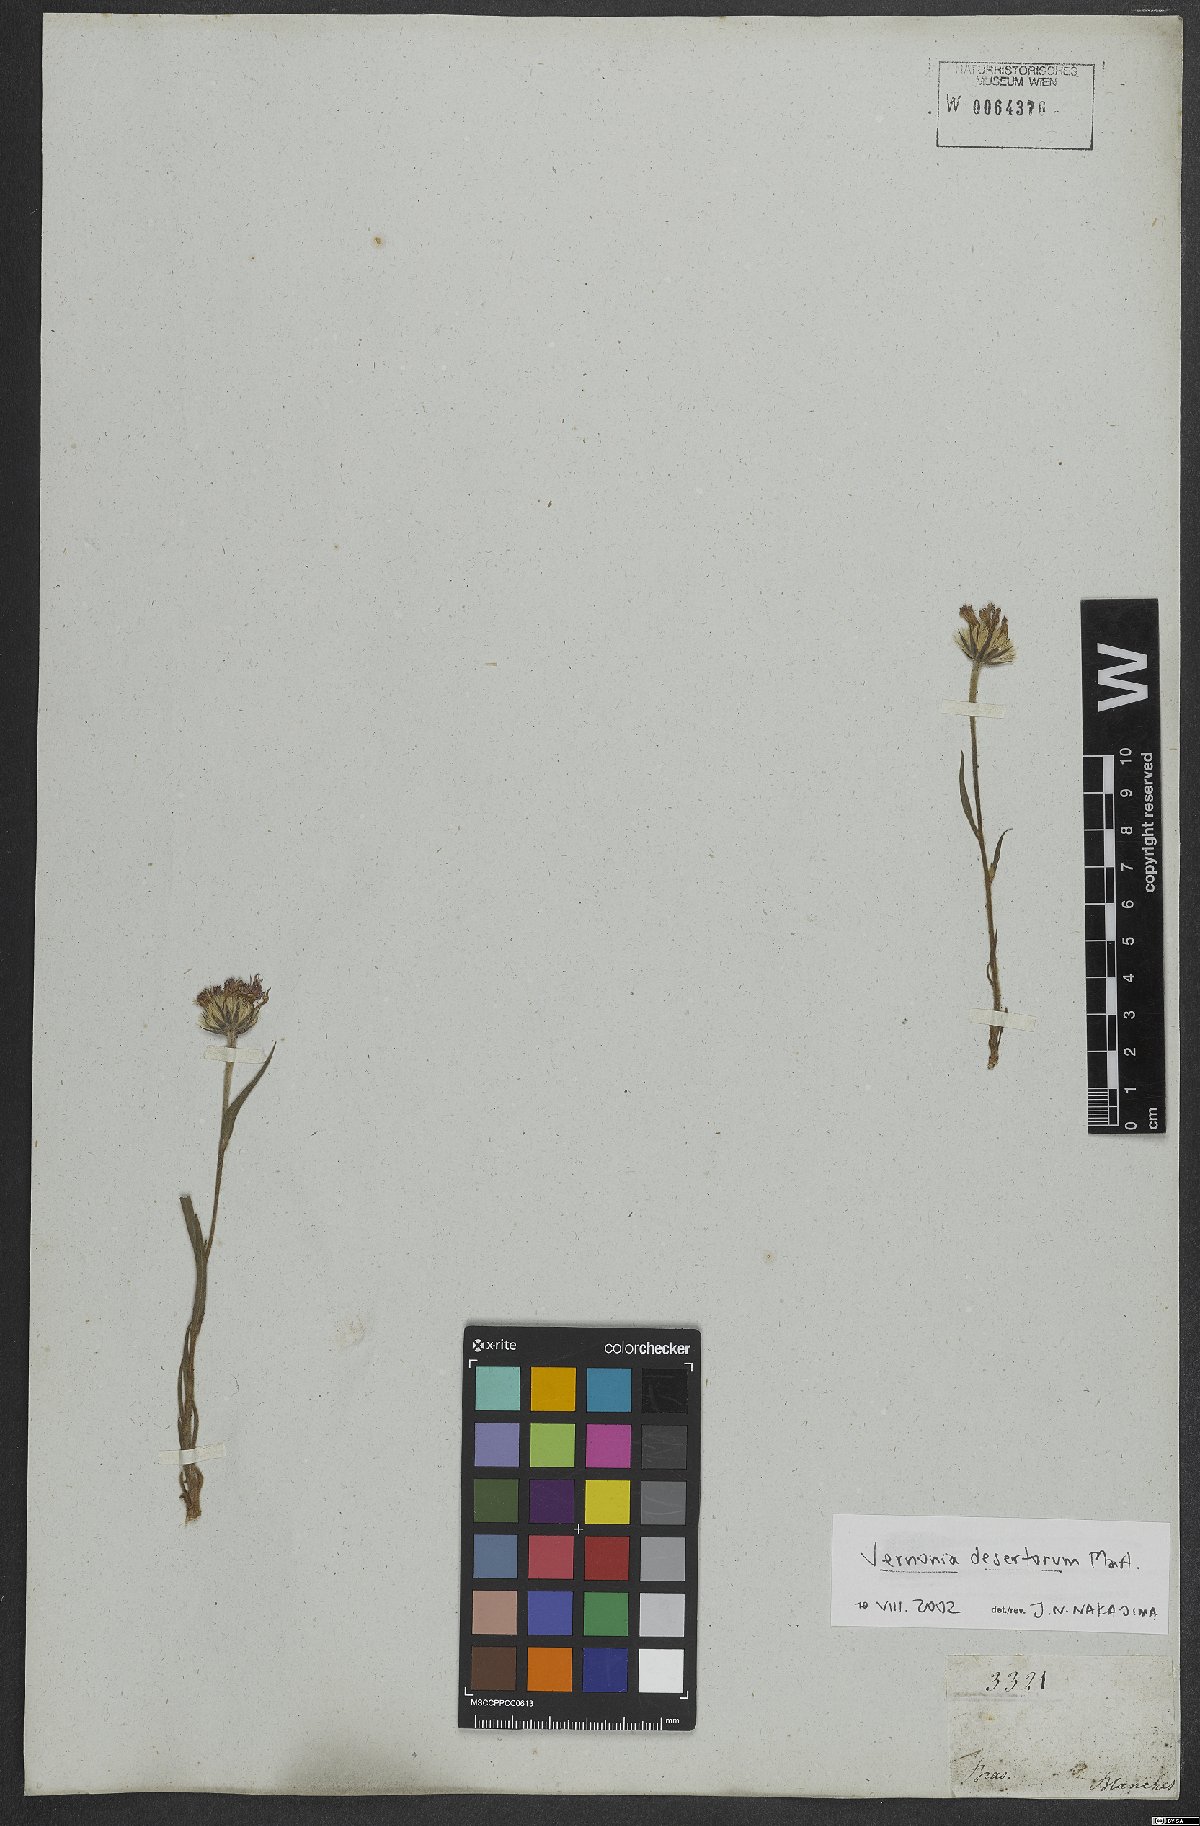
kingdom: Plantae
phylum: Tracheophyta
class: Magnoliopsida
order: Asterales
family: Asteraceae
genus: Chrysolaena
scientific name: Chrysolaena desertorum
